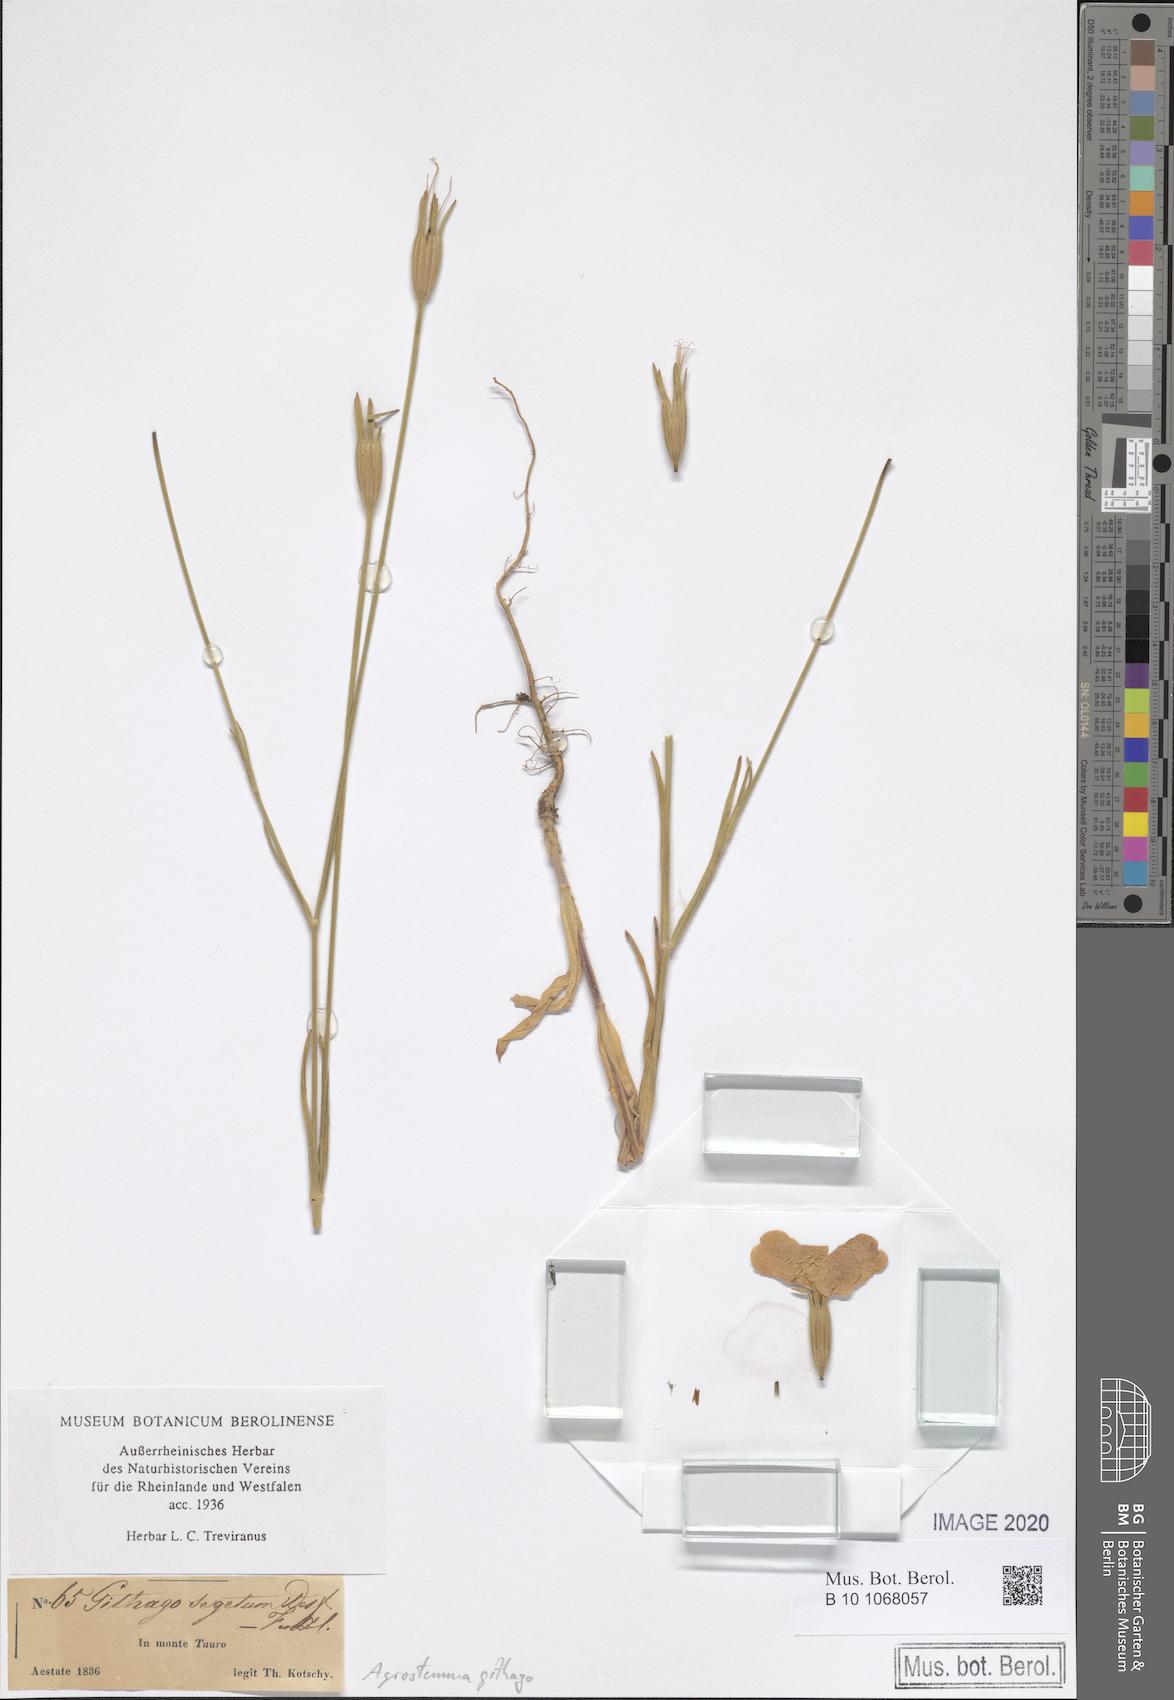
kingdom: Plantae
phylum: Tracheophyta
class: Magnoliopsida
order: Caryophyllales
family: Caryophyllaceae
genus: Agrostemma
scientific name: Agrostemma githago
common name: Common corncockle
